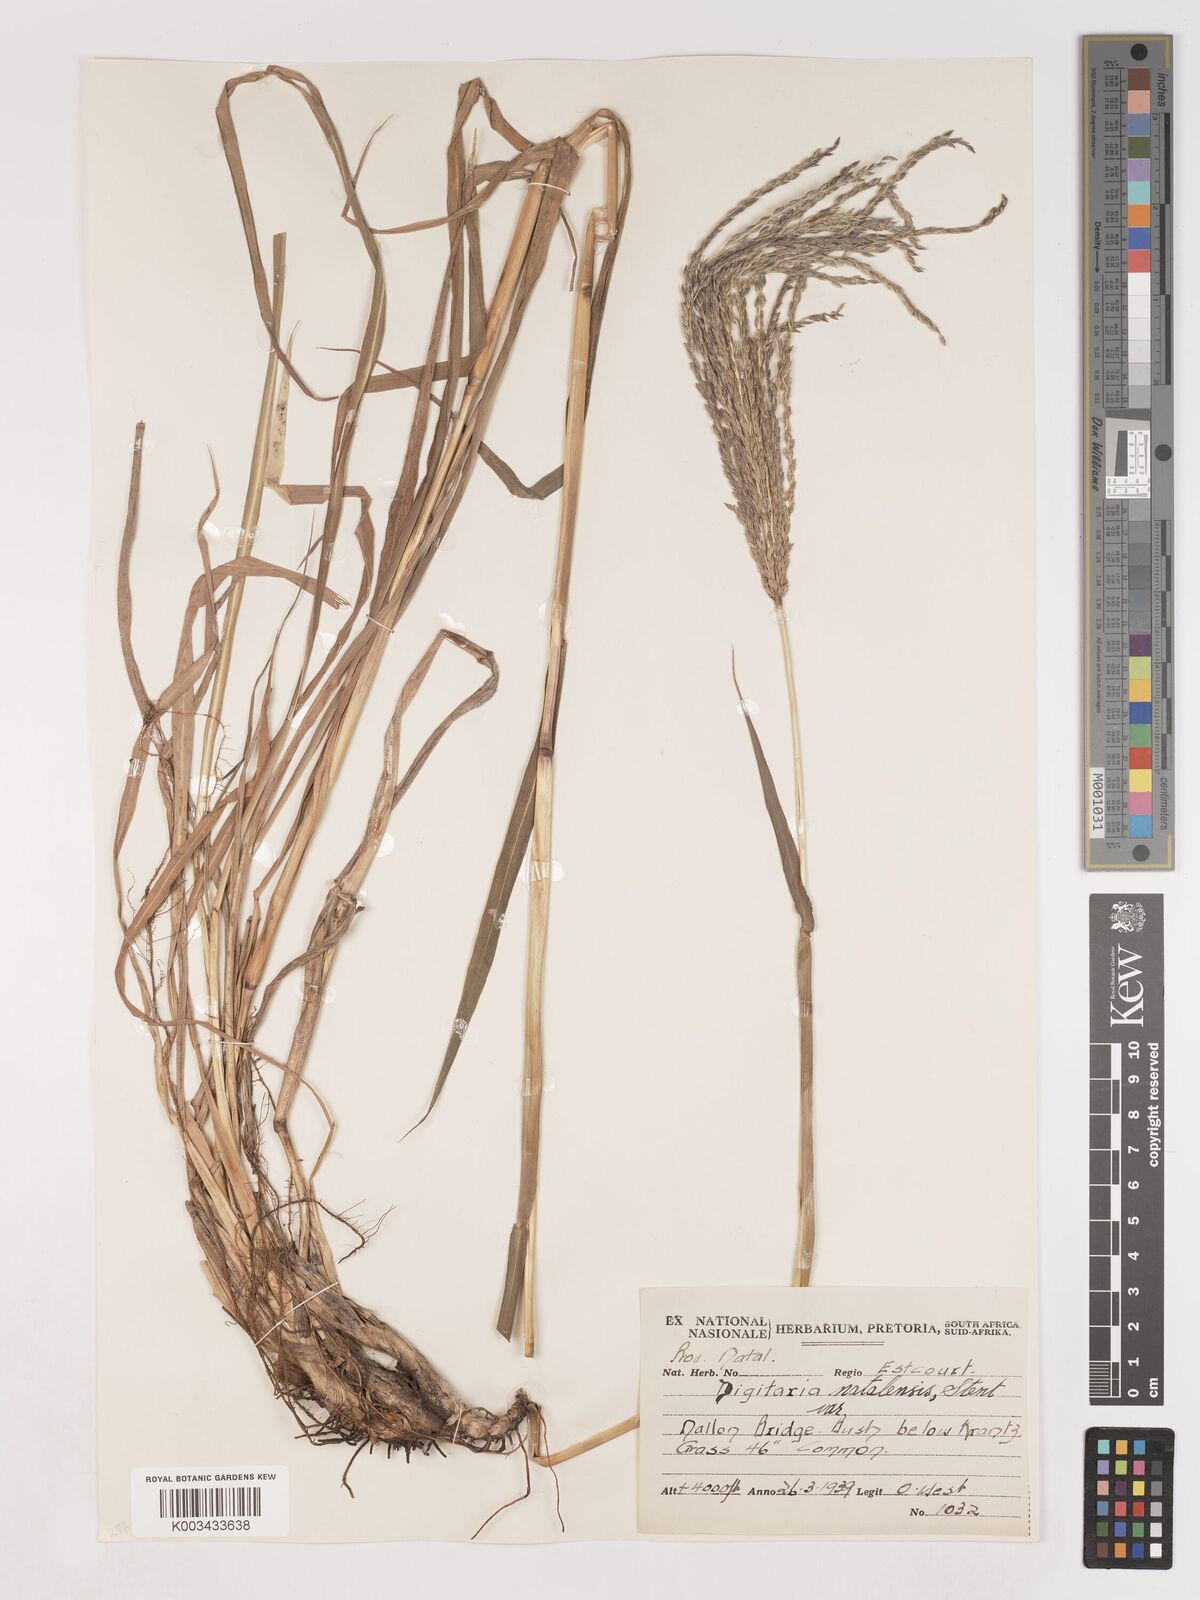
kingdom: Plantae
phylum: Tracheophyta
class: Liliopsida
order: Poales
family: Poaceae
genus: Digitaria
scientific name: Digitaria natalensis
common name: Coast finger grass
